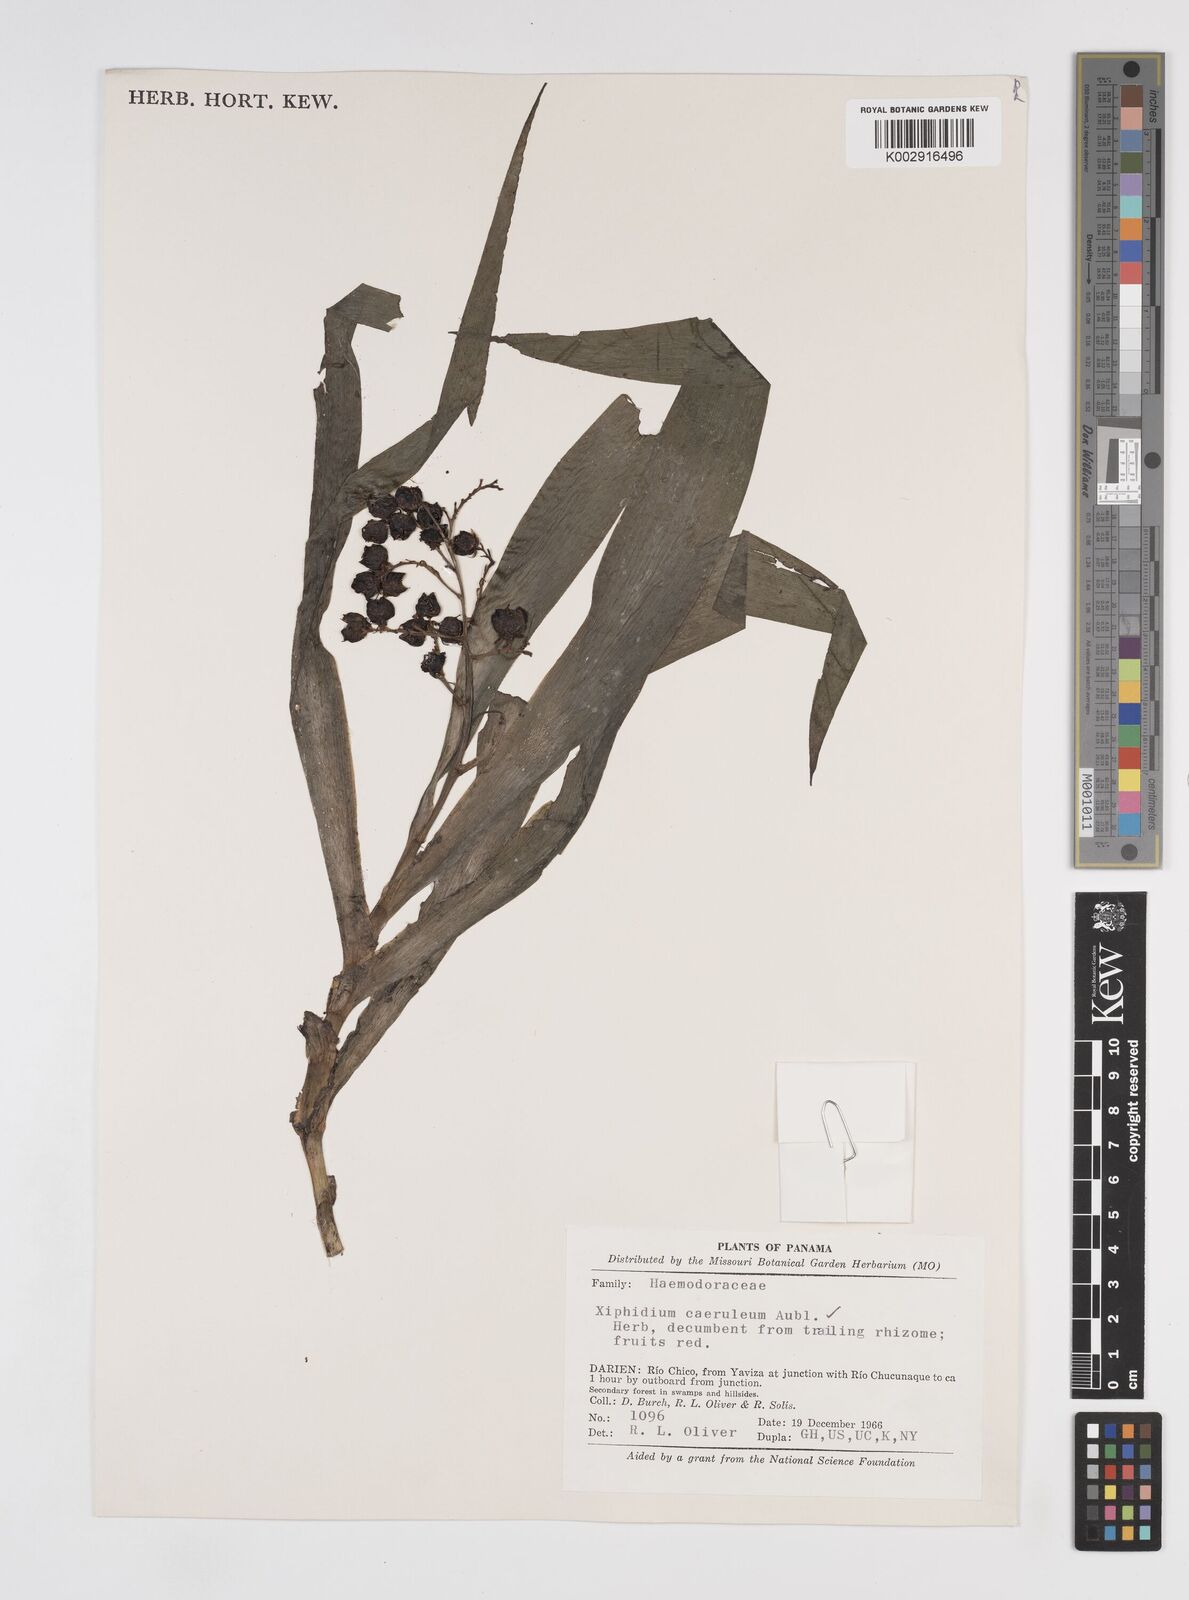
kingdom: Plantae
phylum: Tracheophyta
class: Liliopsida
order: Commelinales
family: Haemodoraceae
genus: Xiphidium
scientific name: Xiphidium caeruleum
